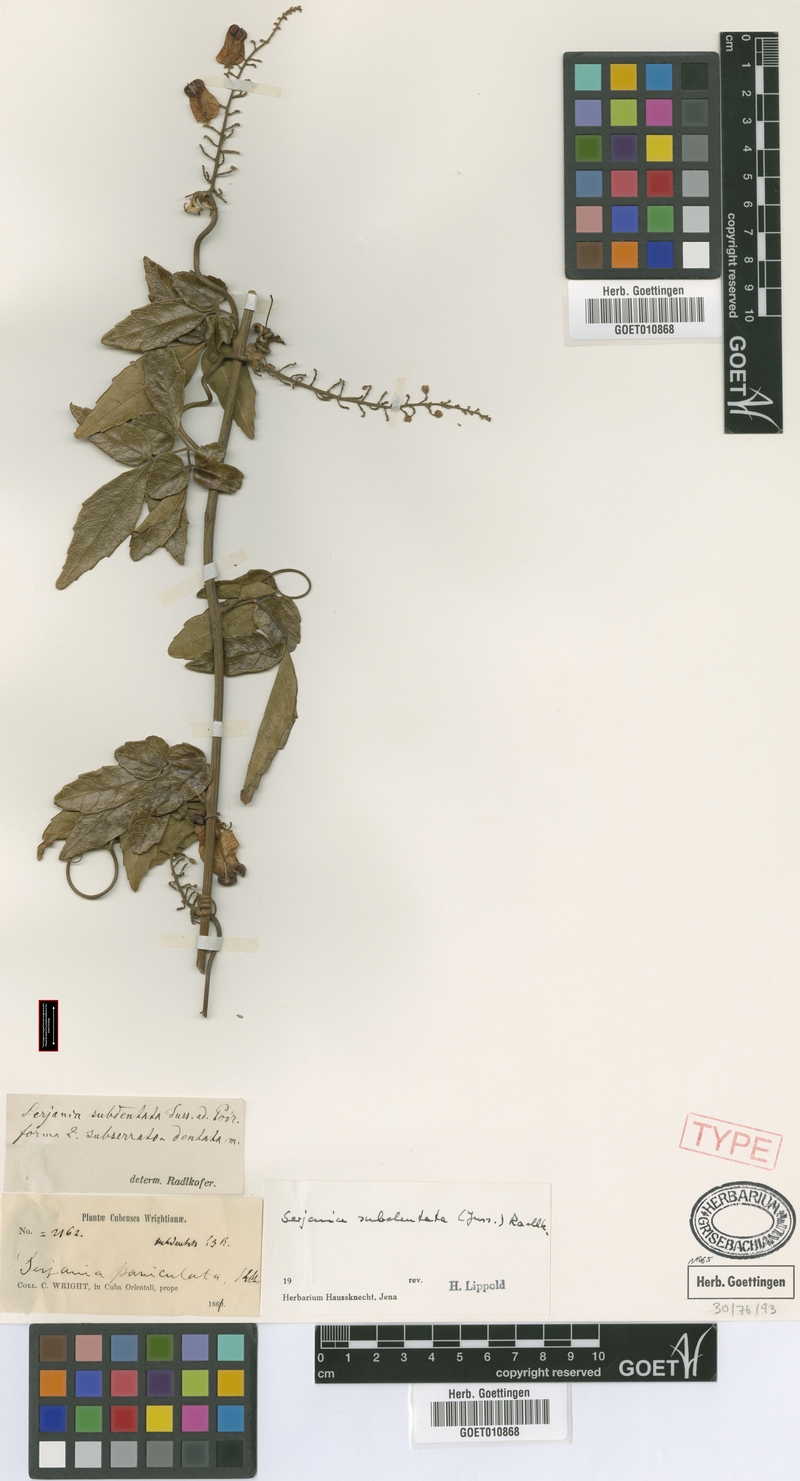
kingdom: Plantae
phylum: Tracheophyta
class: Magnoliopsida
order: Sapindales
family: Sapindaceae
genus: Serjania
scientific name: Serjania subdentata
